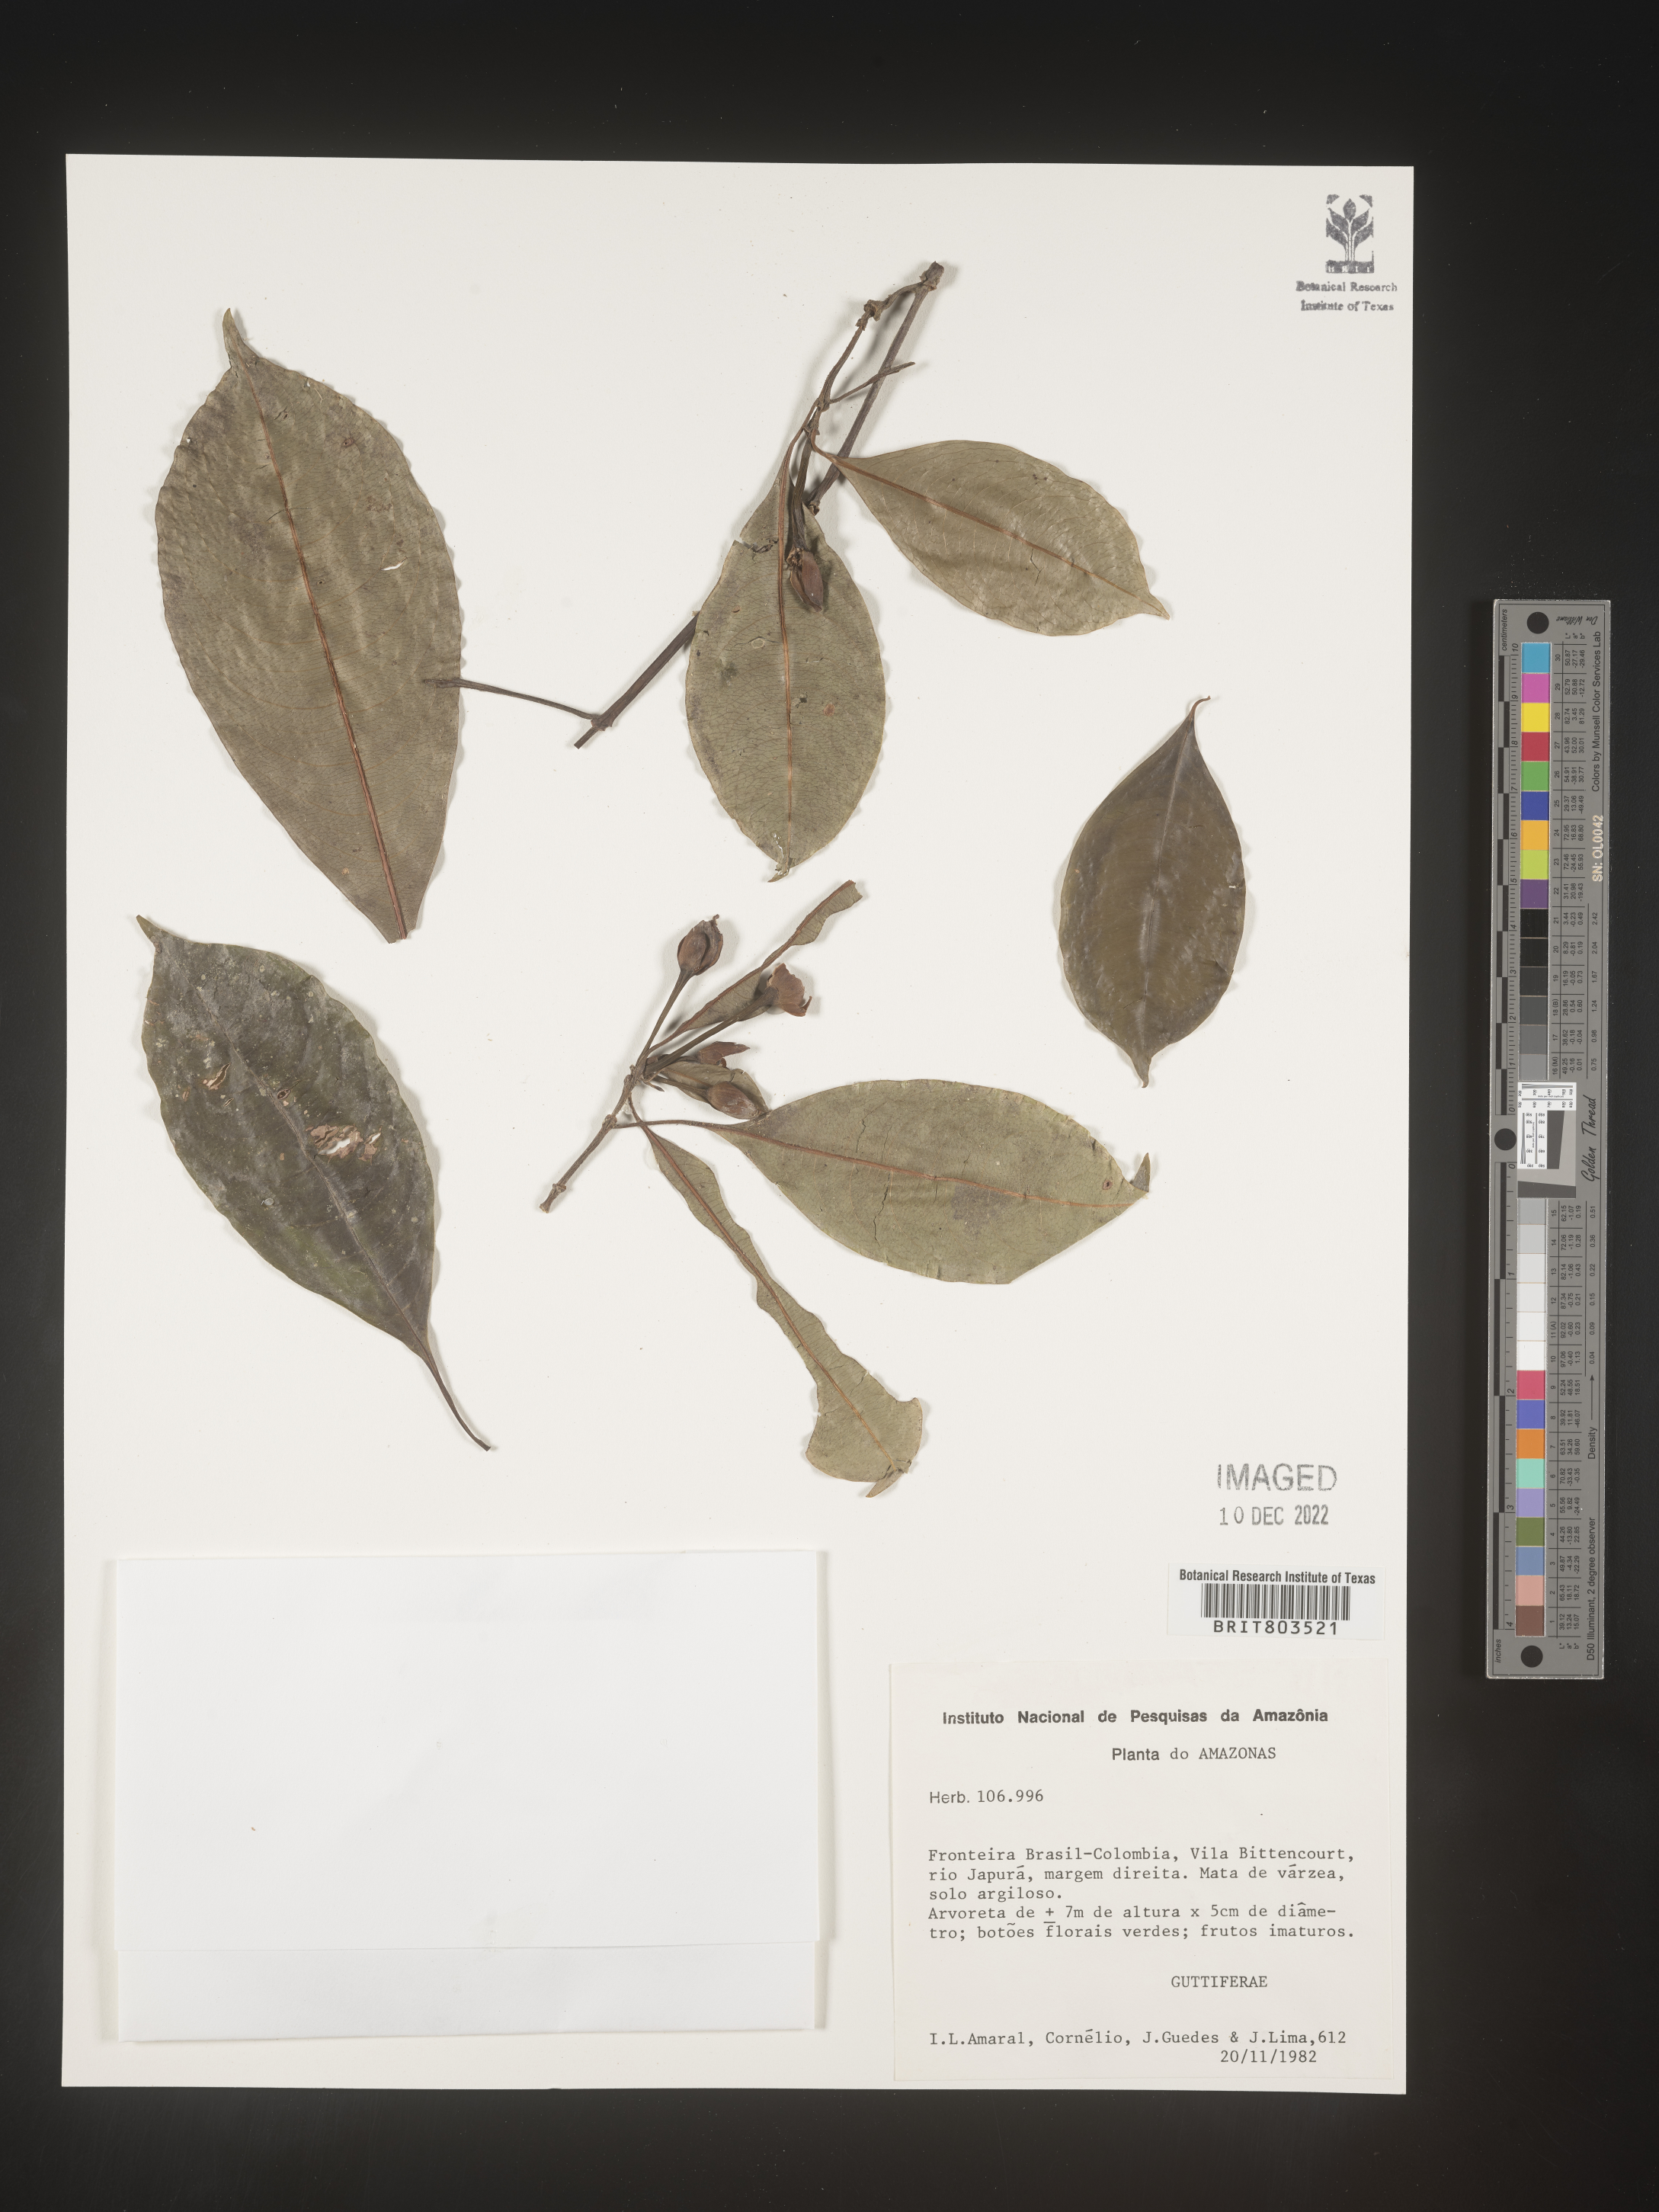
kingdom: Plantae
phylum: Tracheophyta
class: Magnoliopsida
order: Malpighiales
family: Clusiaceae
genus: Tovomita
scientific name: Tovomita
